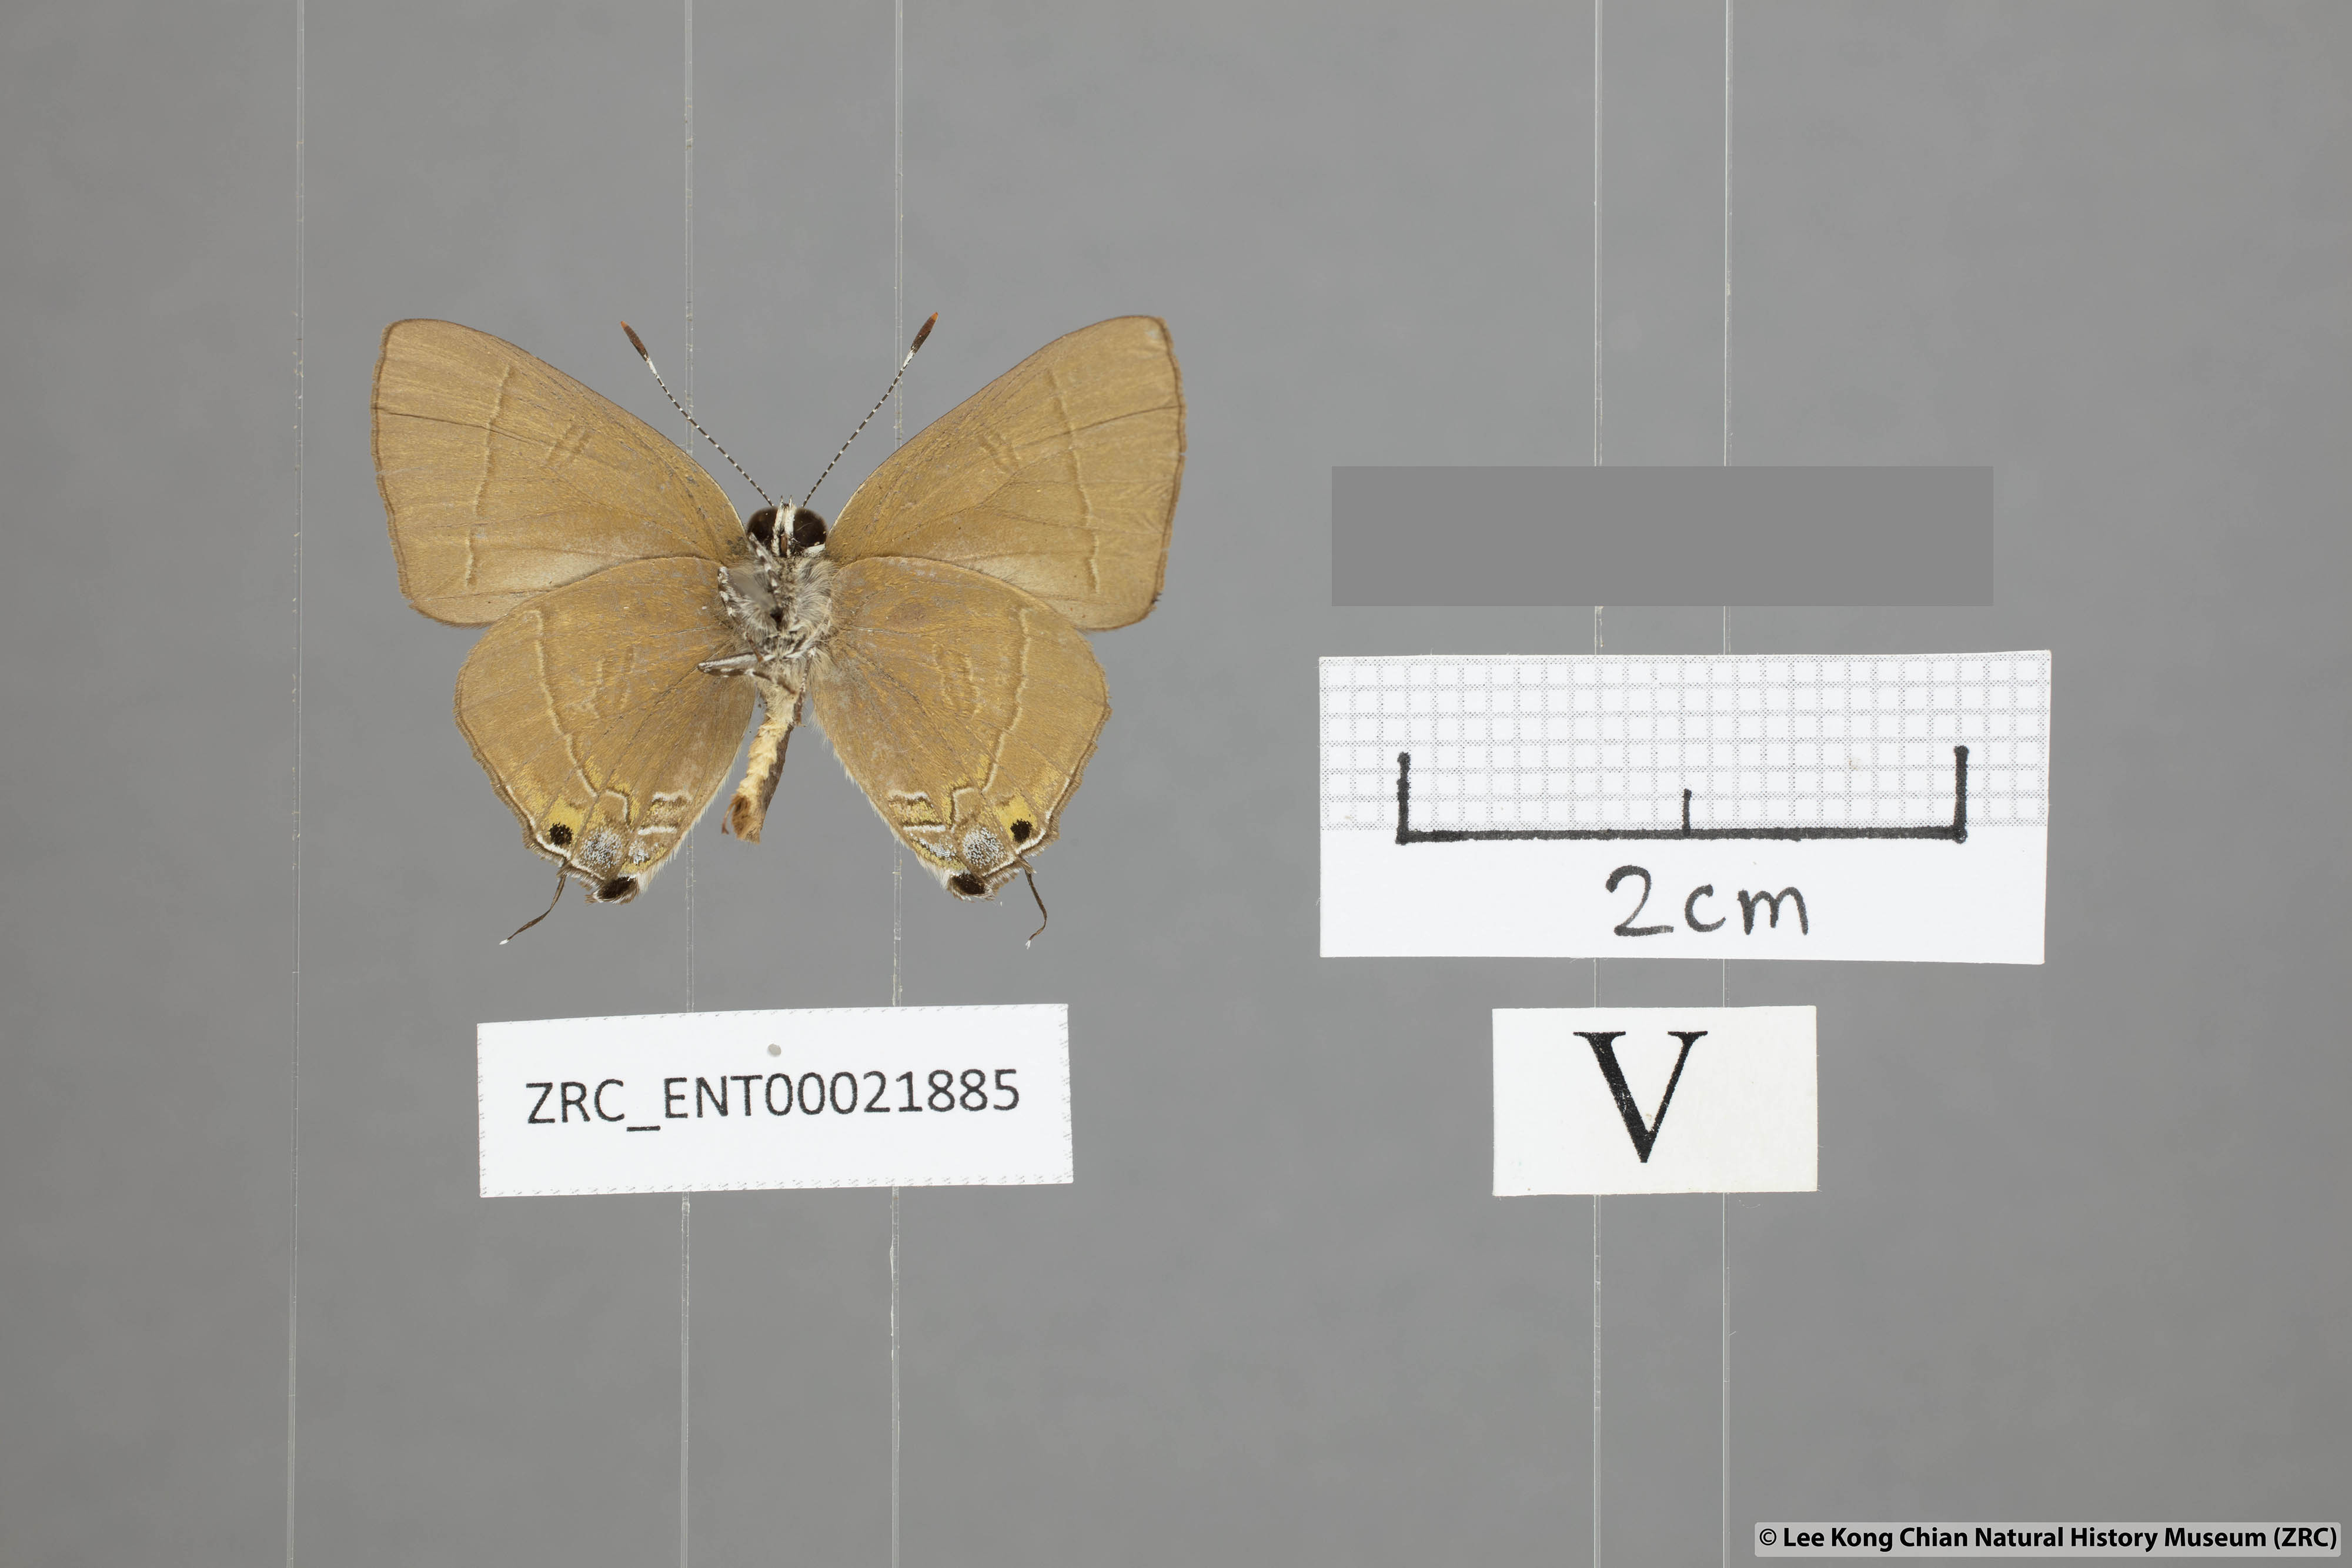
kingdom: Animalia
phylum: Arthropoda
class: Insecta
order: Lepidoptera
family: Lycaenidae
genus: Rapala
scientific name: Rapala rhodopis
